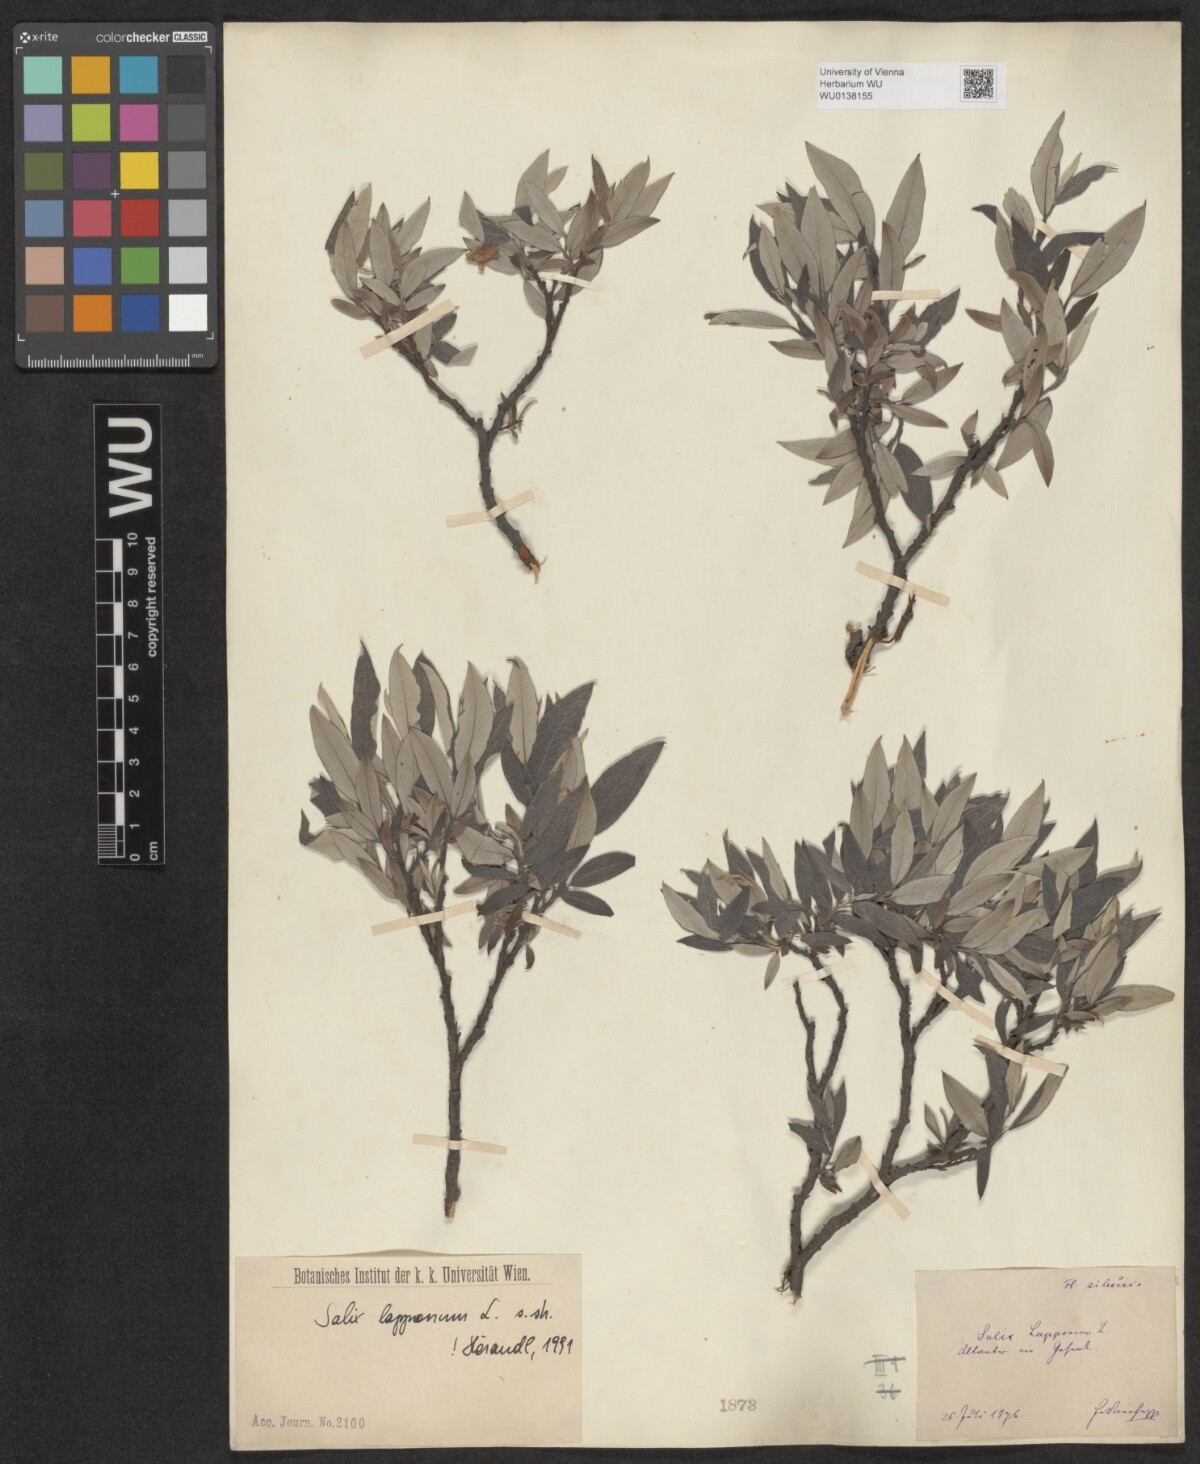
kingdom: Plantae
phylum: Tracheophyta
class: Magnoliopsida
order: Malpighiales
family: Salicaceae
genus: Salix
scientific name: Salix lapponum
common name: Downy willow
